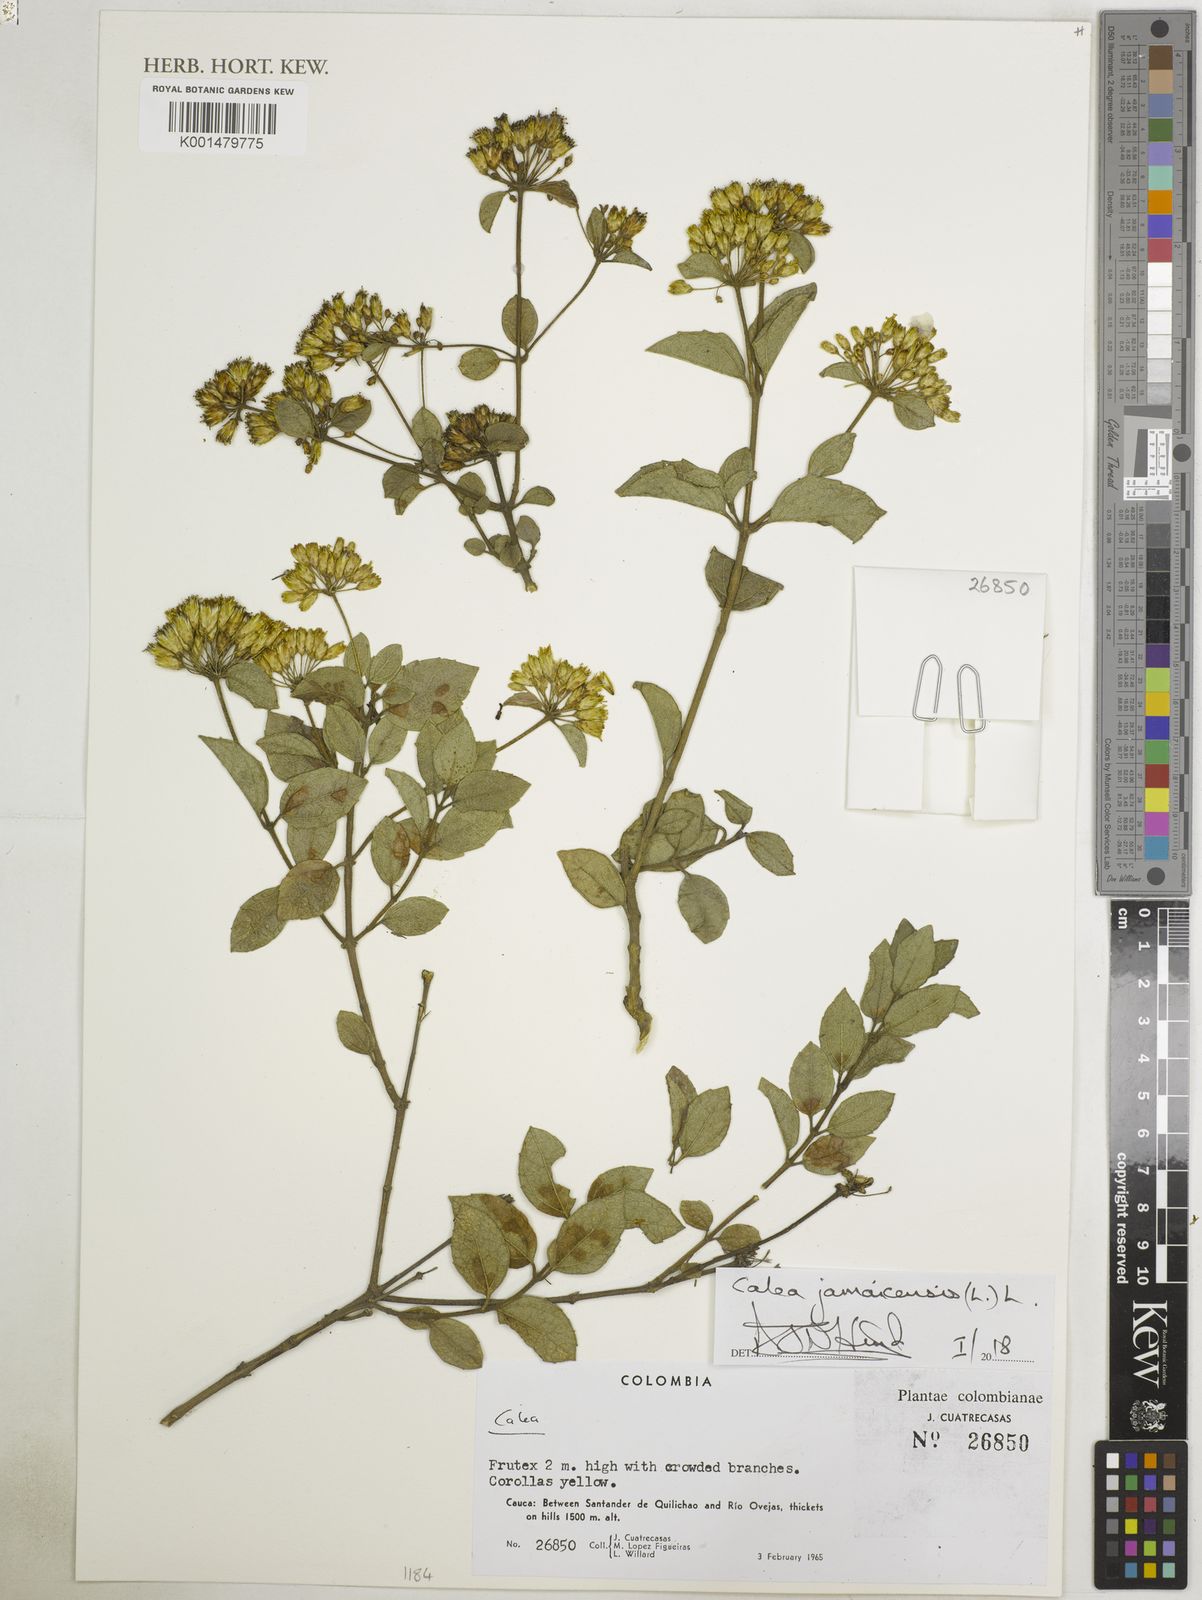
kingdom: Plantae
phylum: Tracheophyta
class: Magnoliopsida
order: Asterales
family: Asteraceae
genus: Calea
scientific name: Calea jamaicensis
